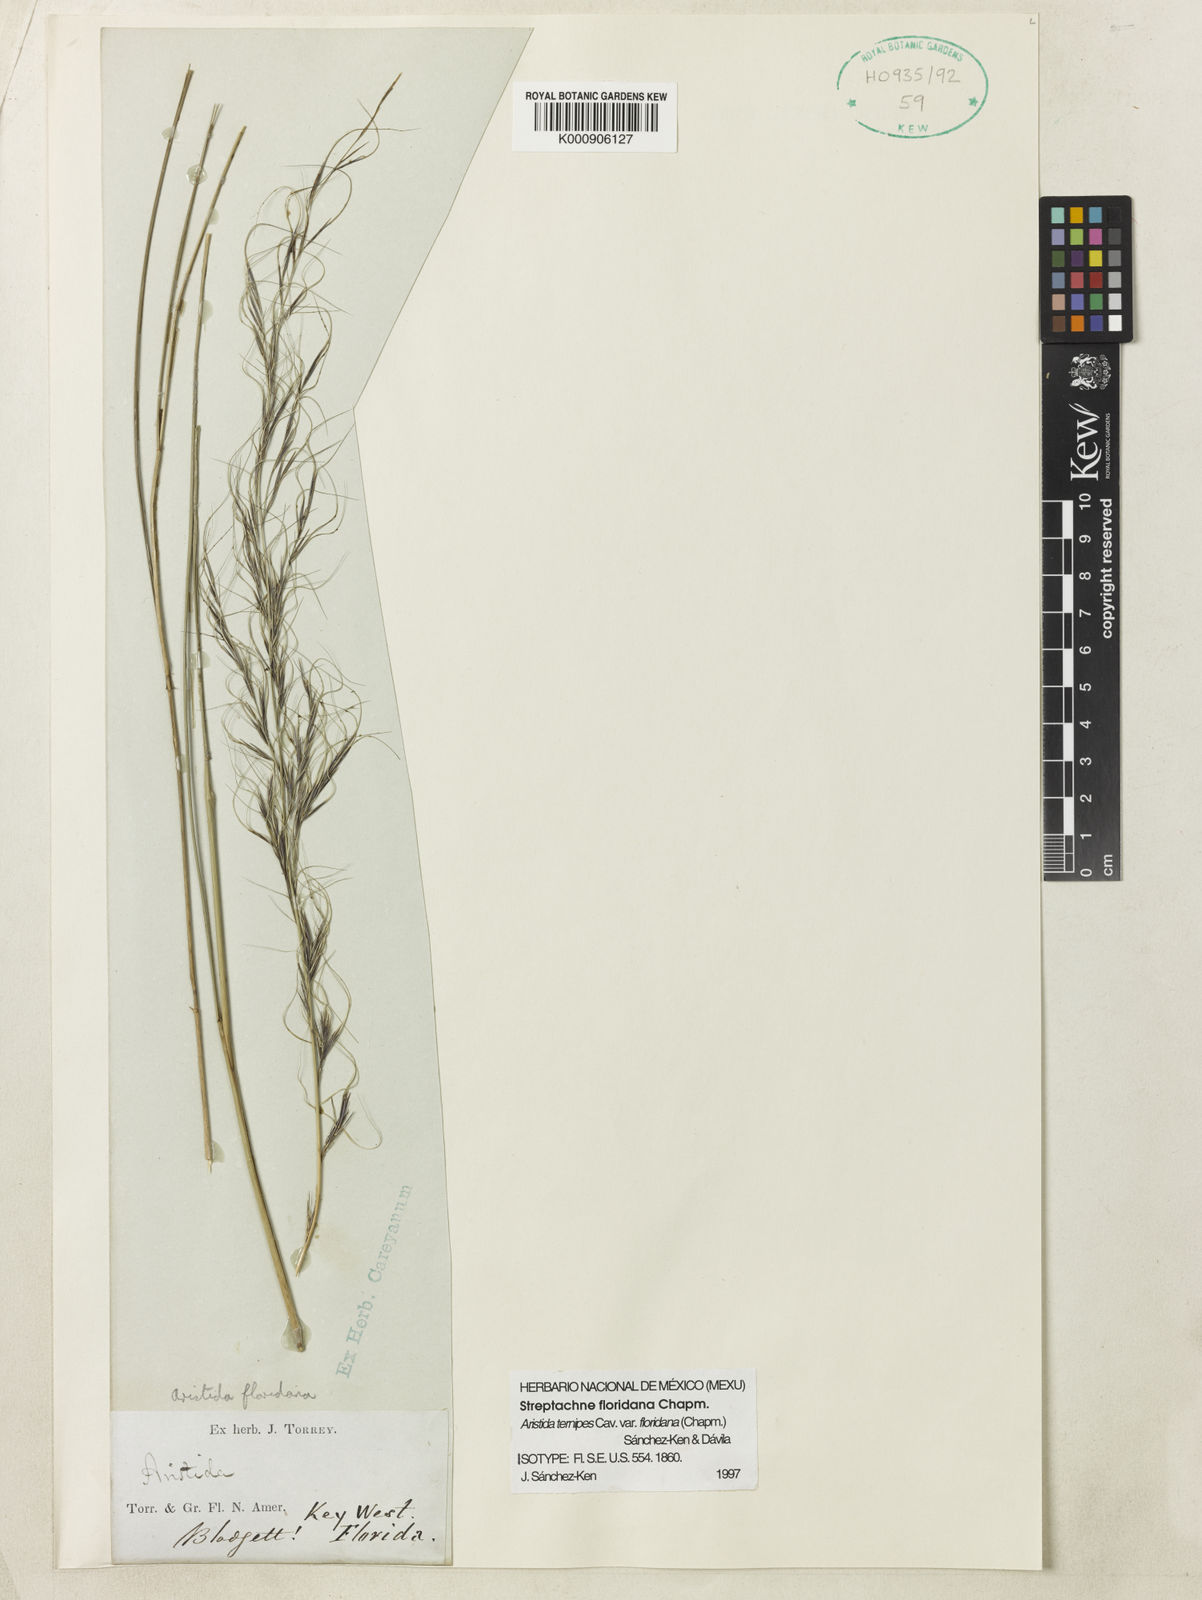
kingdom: Plantae
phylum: Tracheophyta
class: Liliopsida
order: Poales
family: Poaceae
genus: Aristida
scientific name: Aristida floridana
